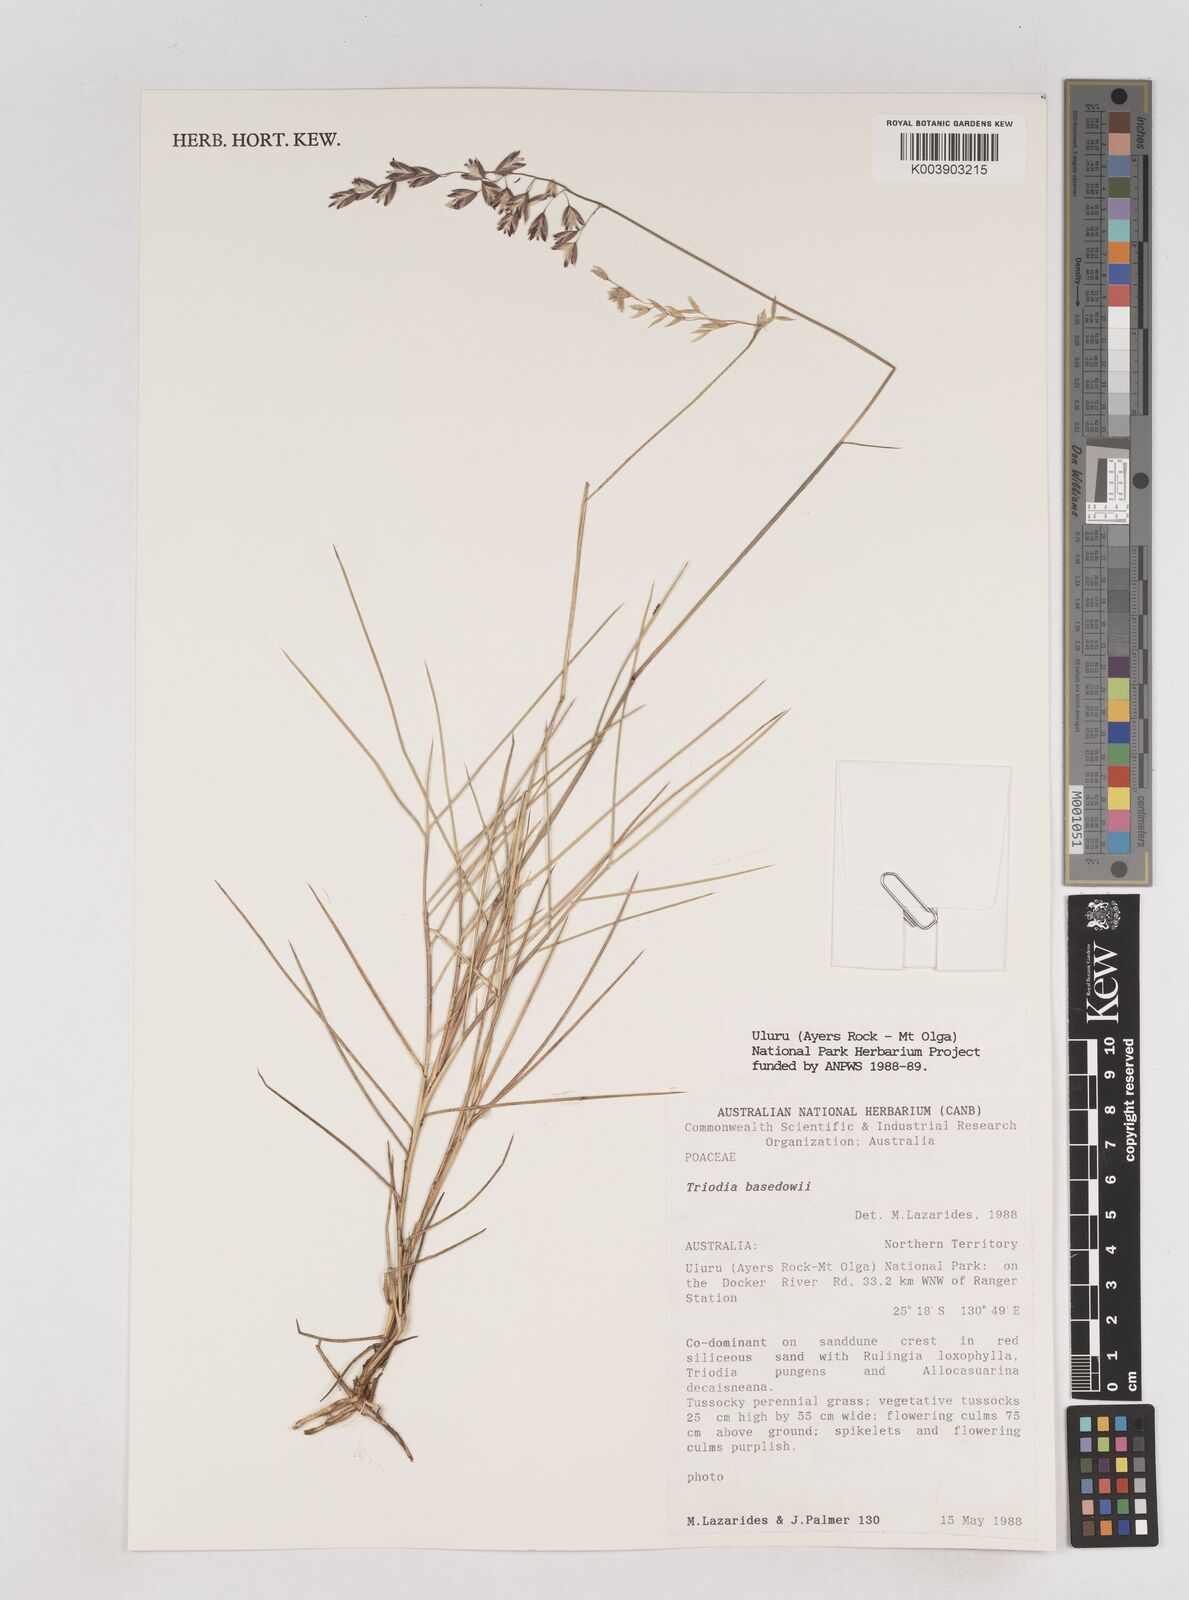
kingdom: Plantae
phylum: Tracheophyta
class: Liliopsida
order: Poales
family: Poaceae
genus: Triodia
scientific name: Triodia basedowii
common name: Hard spinifex
